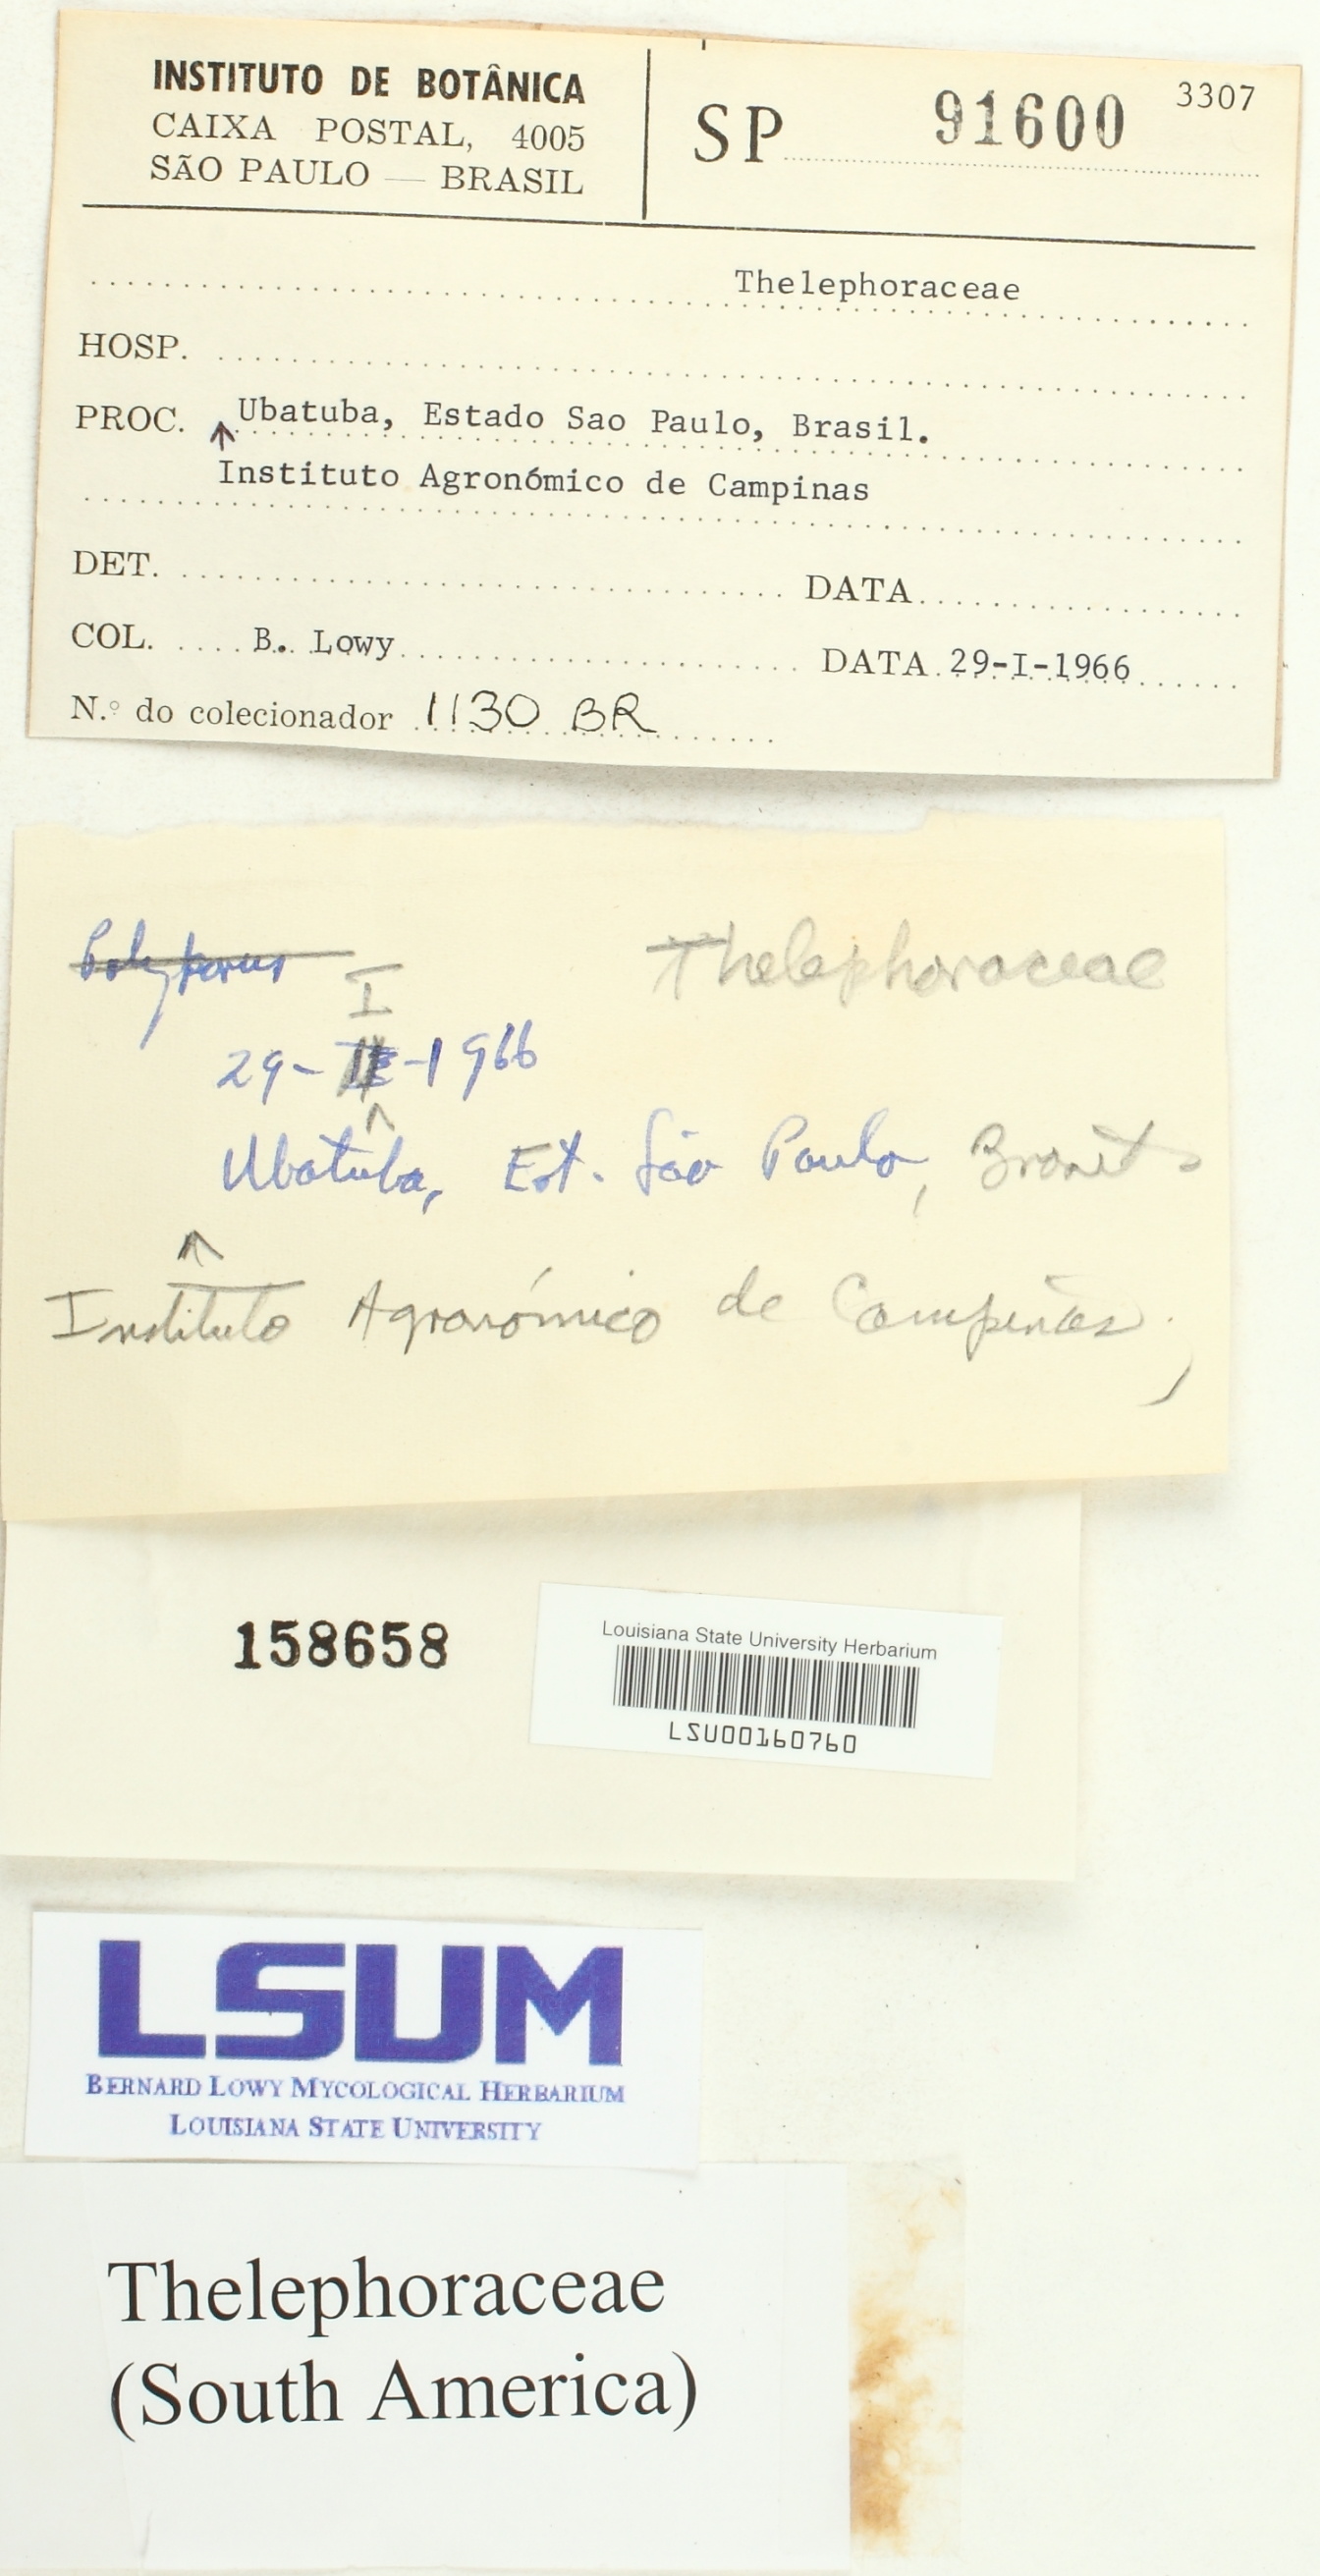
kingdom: Fungi
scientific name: Fungi
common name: Fungi
